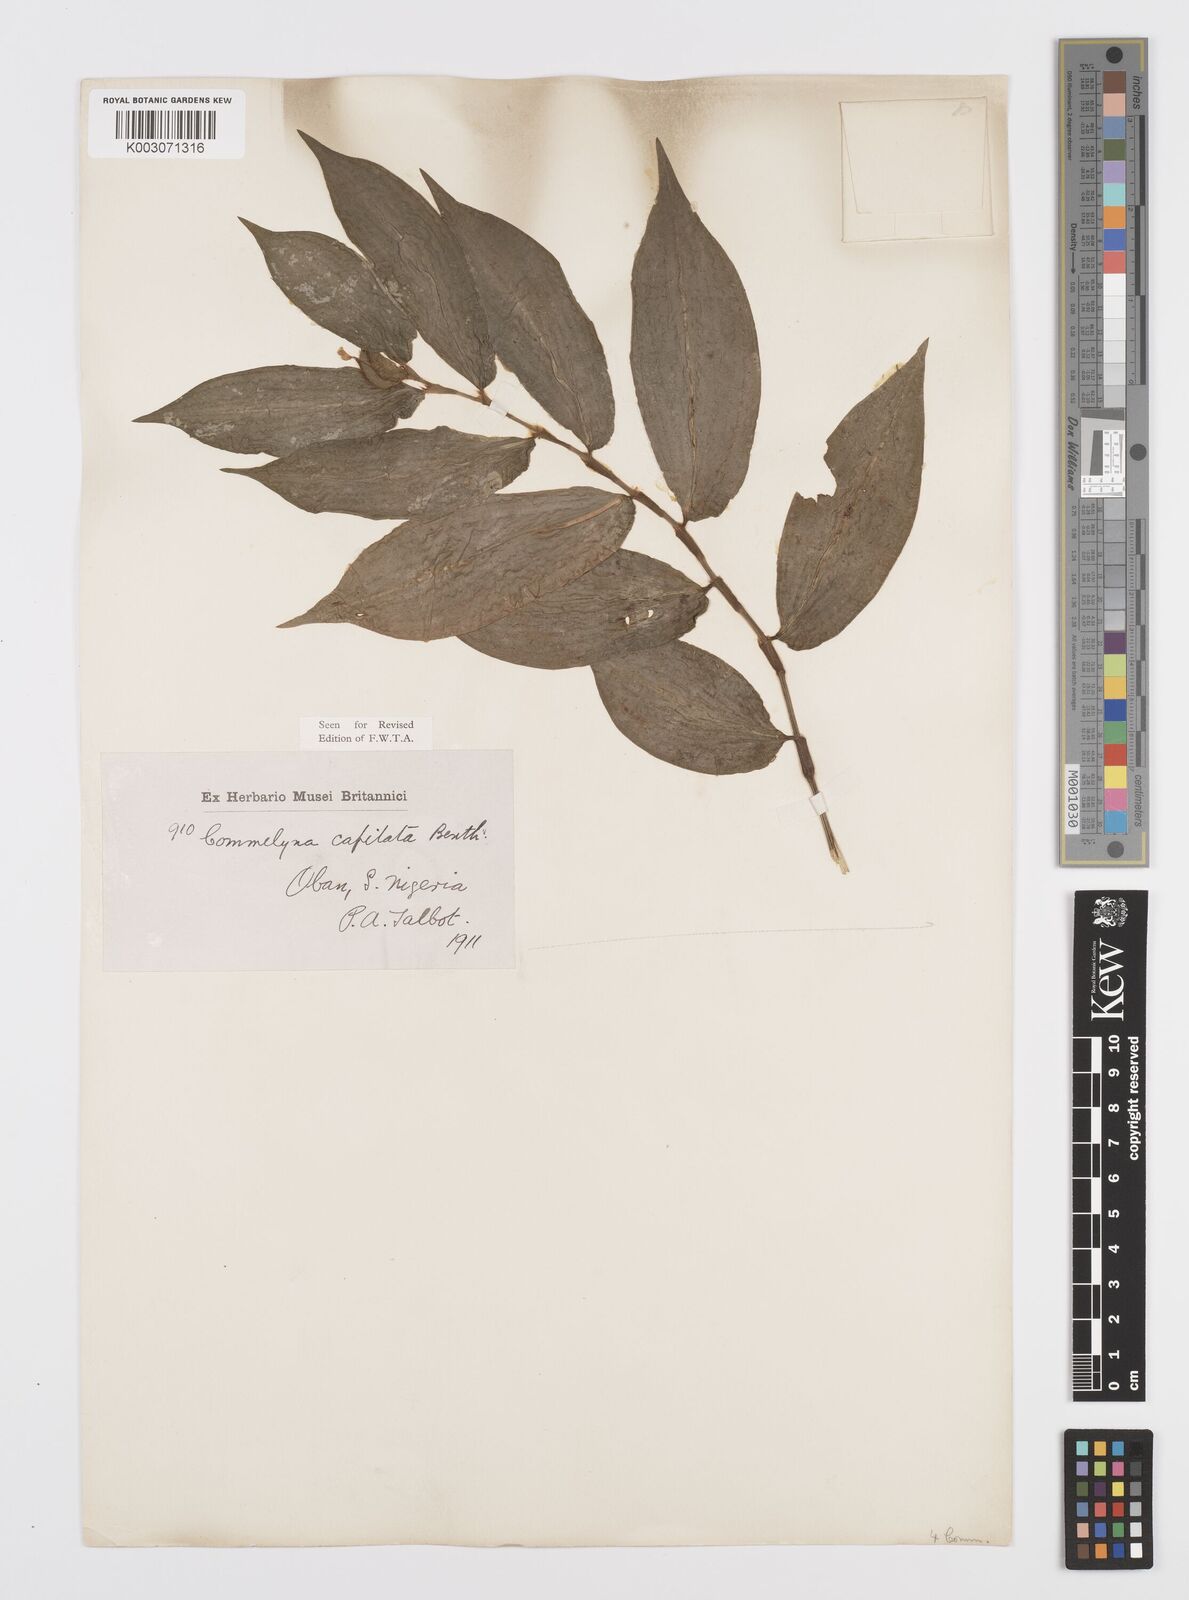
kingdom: Plantae
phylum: Tracheophyta
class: Liliopsida
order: Commelinales
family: Commelinaceae
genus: Commelina
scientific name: Commelina capitata
